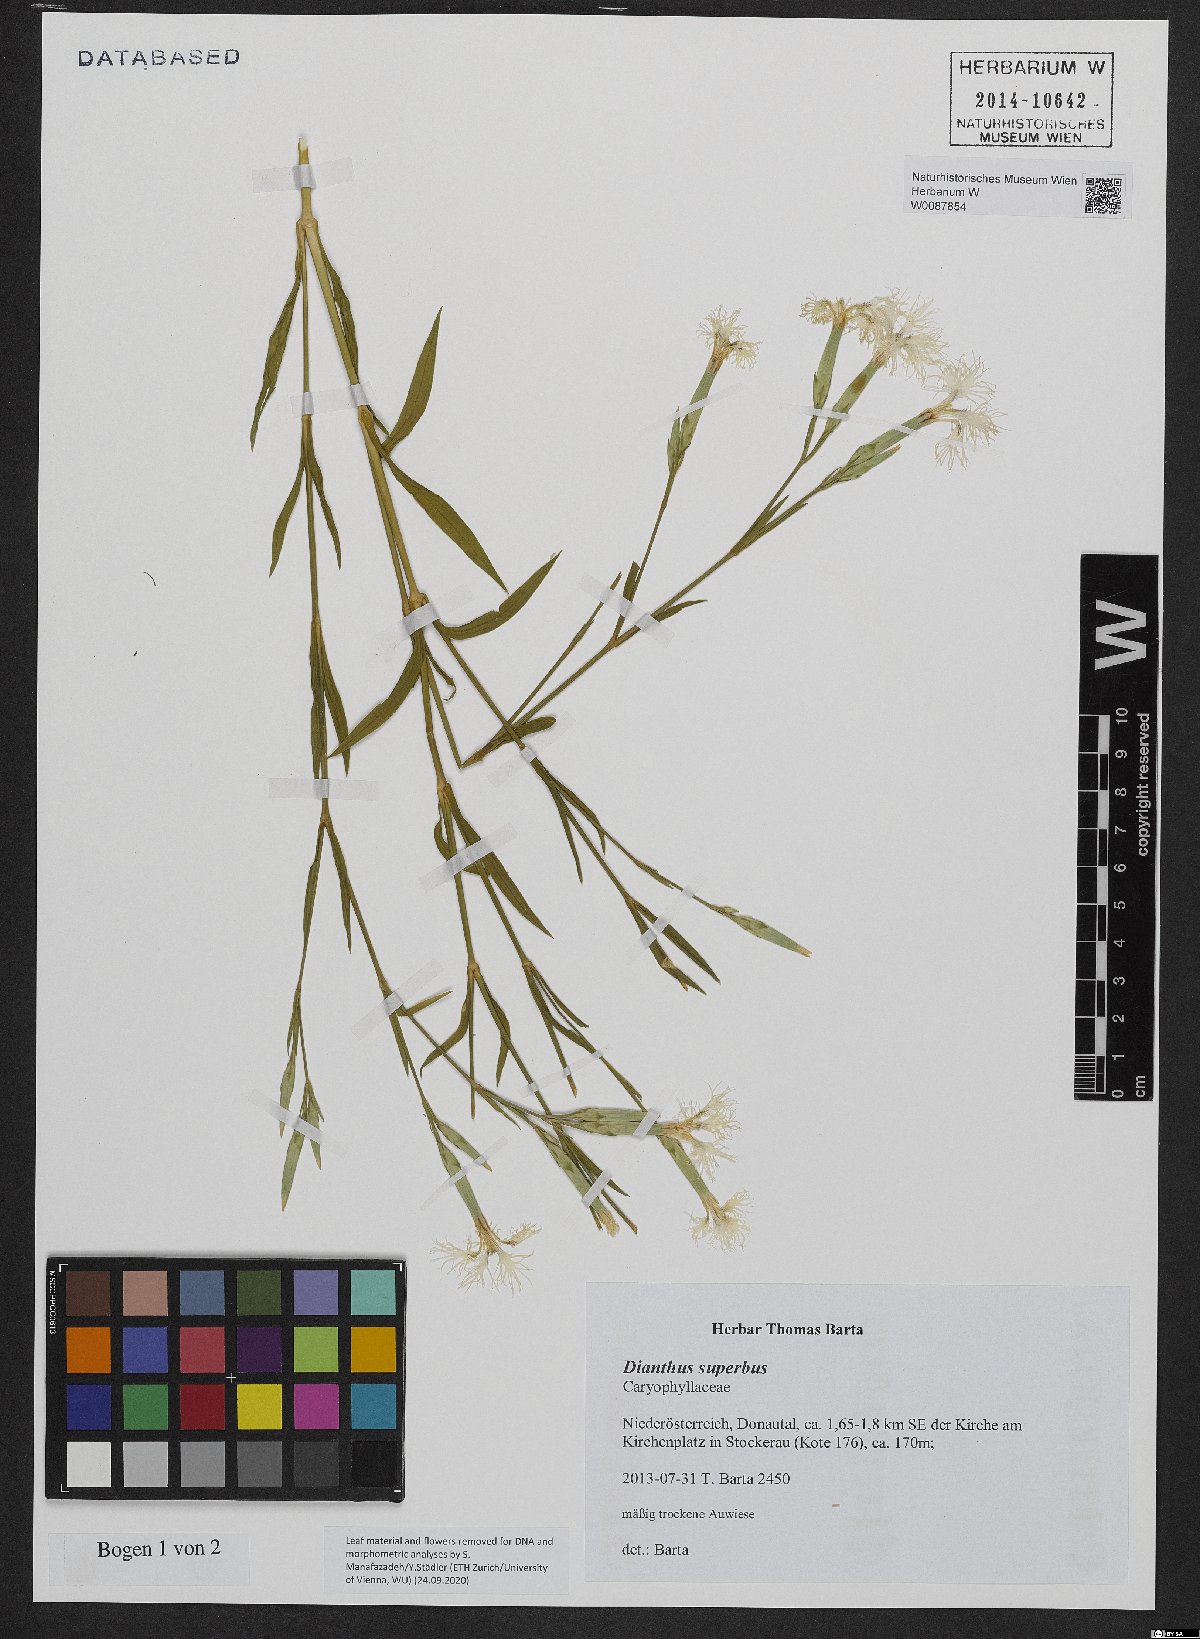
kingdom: Plantae
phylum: Tracheophyta
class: Magnoliopsida
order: Caryophyllales
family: Caryophyllaceae
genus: Dianthus
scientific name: Dianthus superbus
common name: Fringed pink
